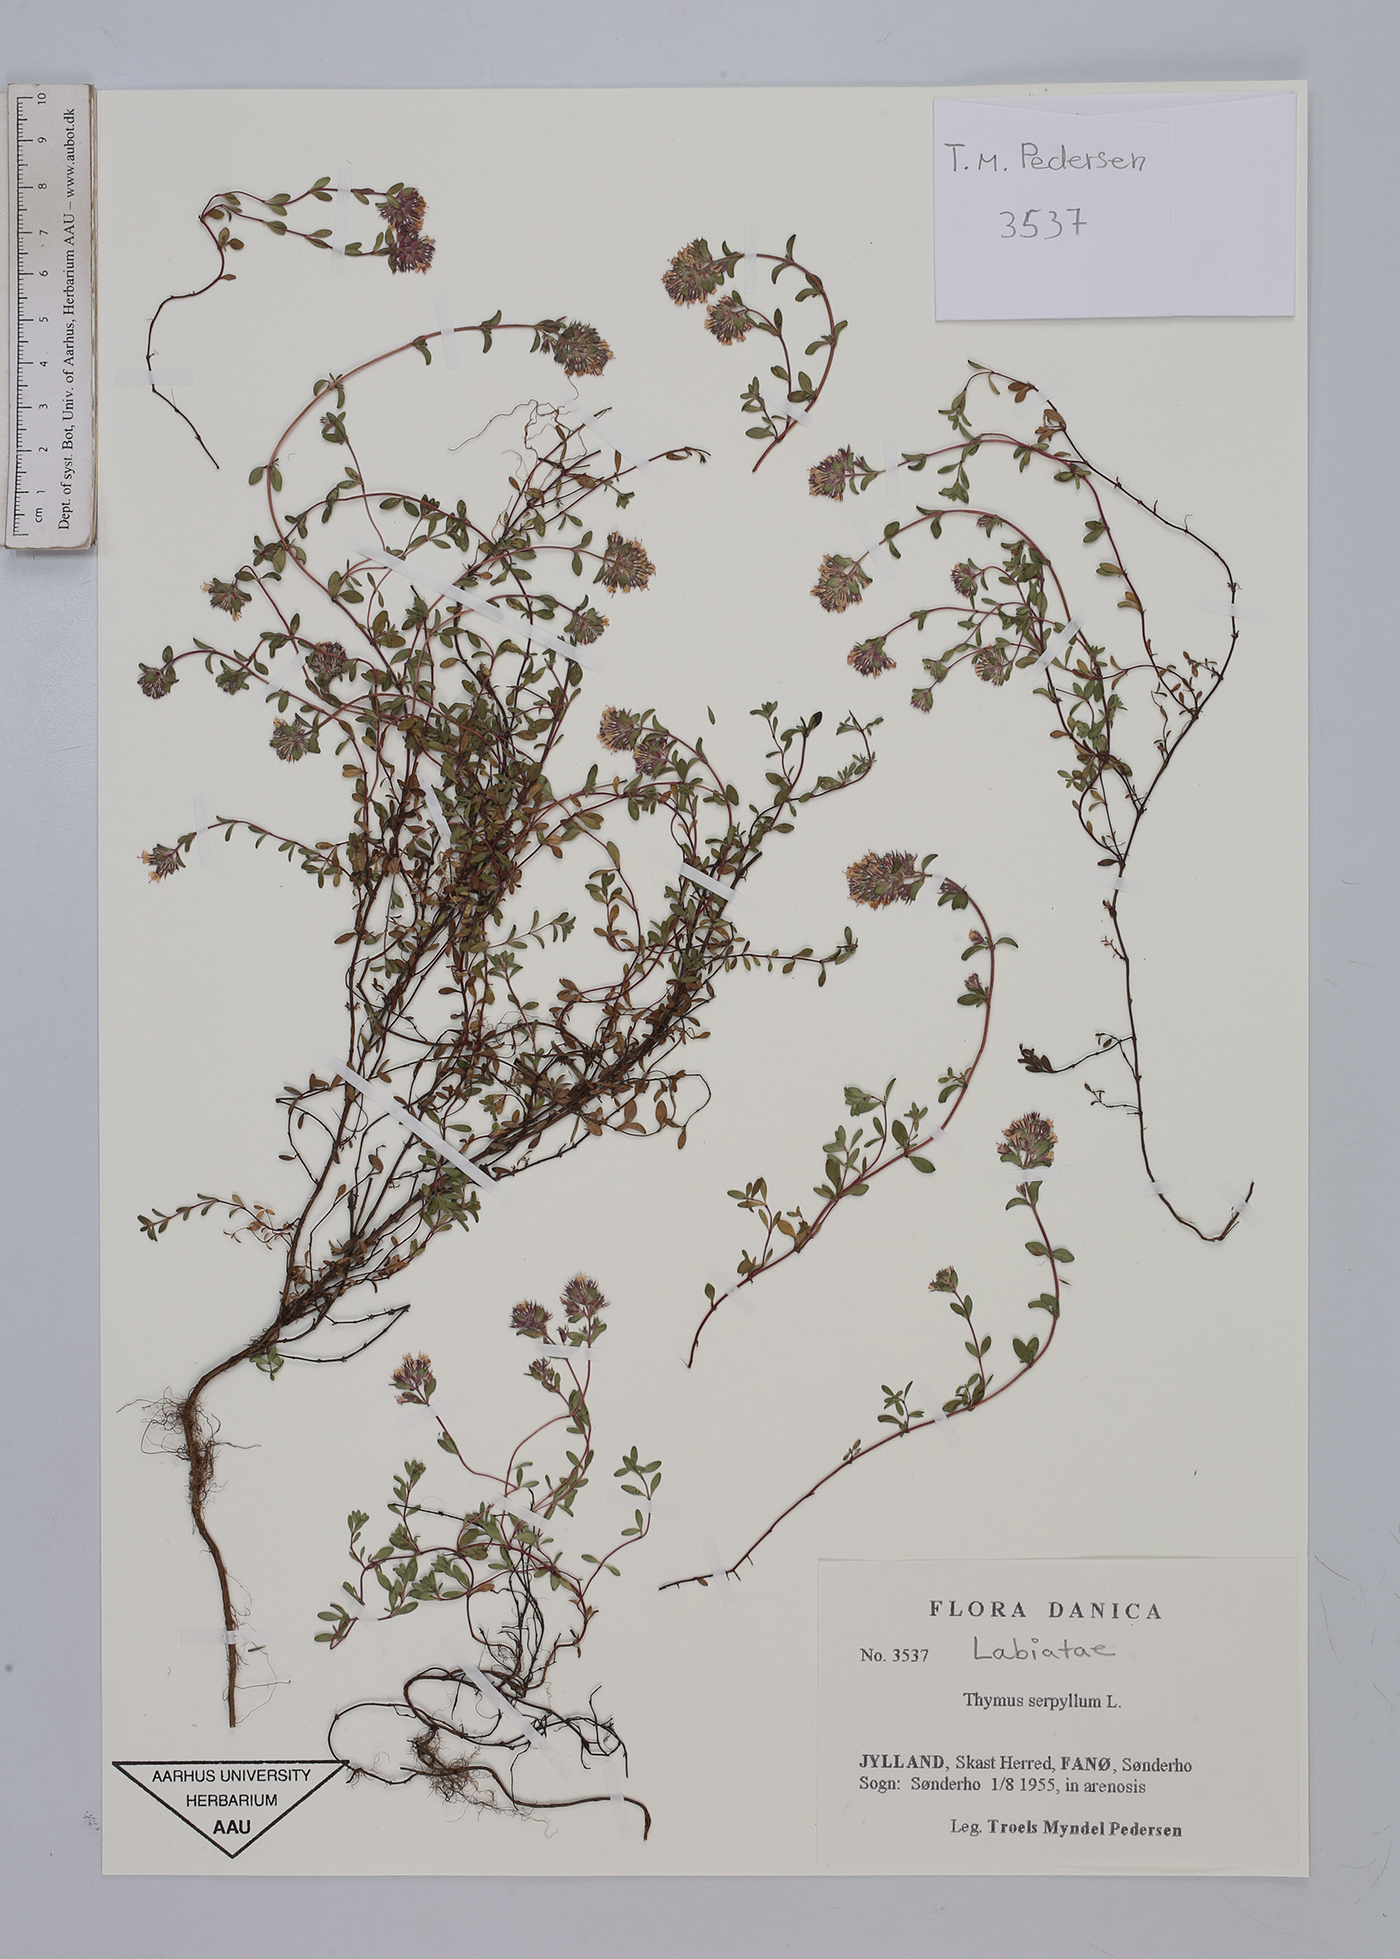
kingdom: Plantae
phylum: Tracheophyta
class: Magnoliopsida
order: Lamiales
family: Lamiaceae
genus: Thymus
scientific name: Thymus serpyllum
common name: Breckland thyme
